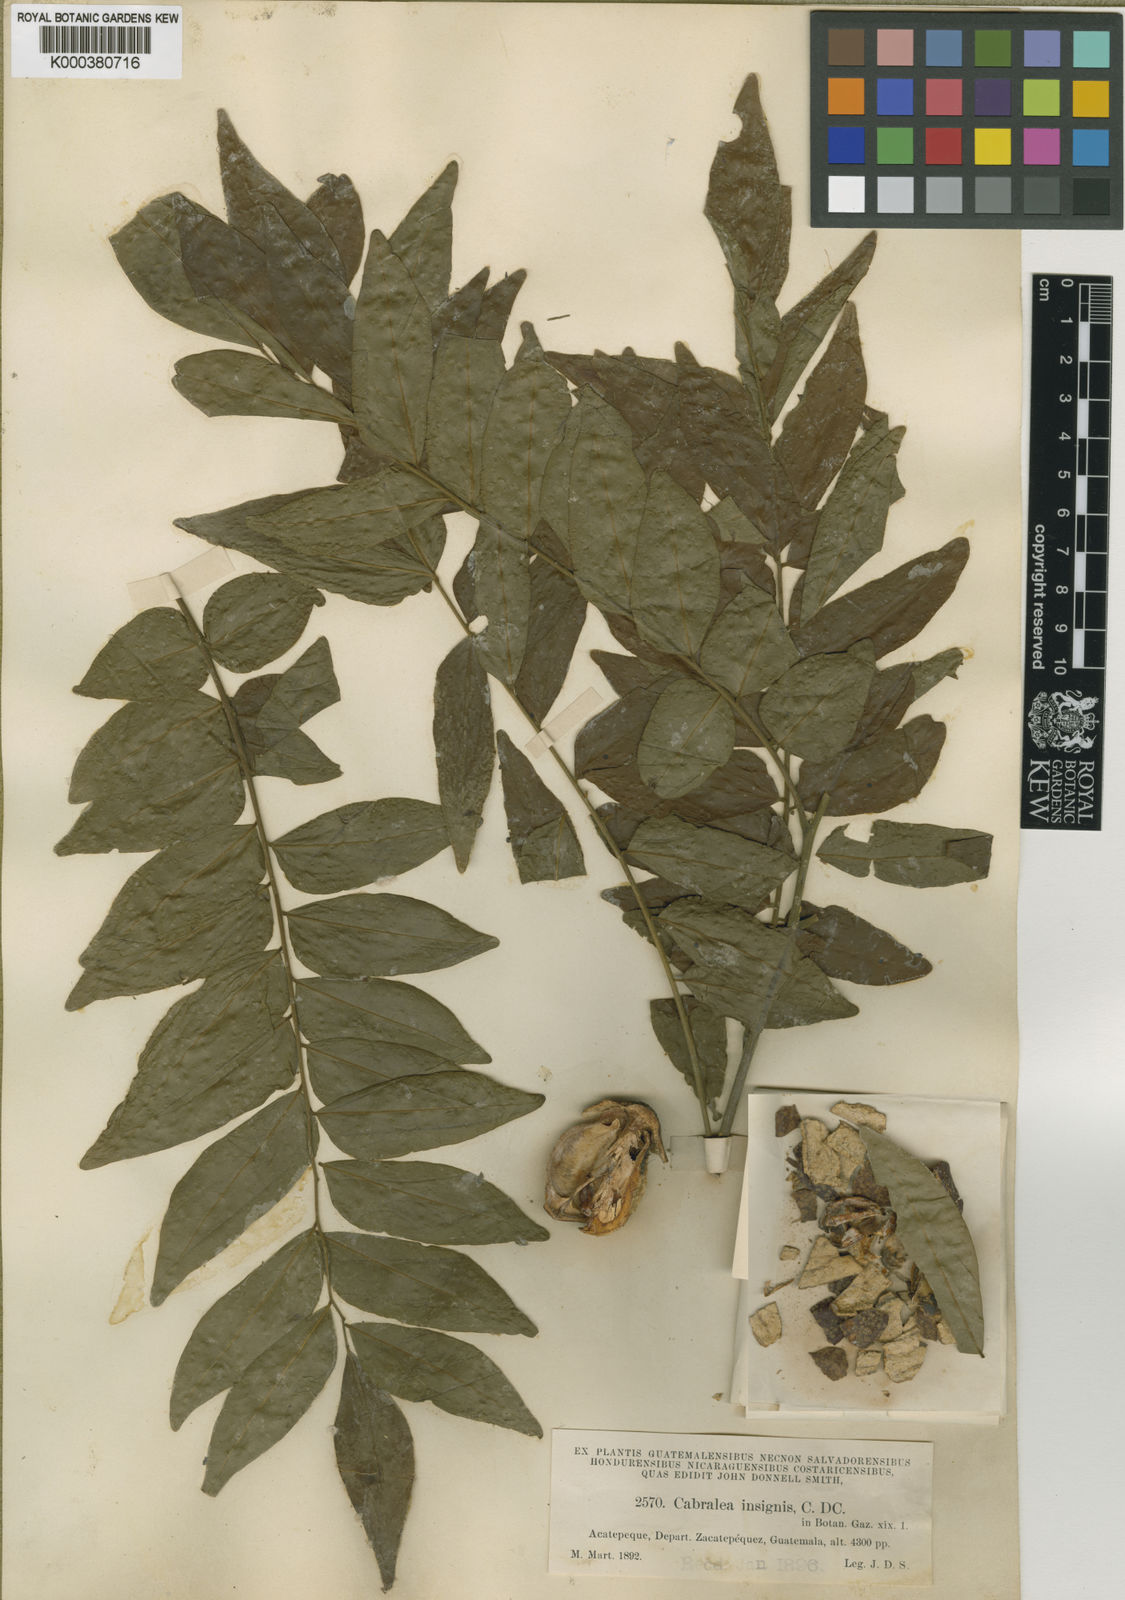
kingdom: Plantae
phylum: Tracheophyta
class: Magnoliopsida
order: Sapindales
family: Meliaceae
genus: Ruagea
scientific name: Ruagea insignis
